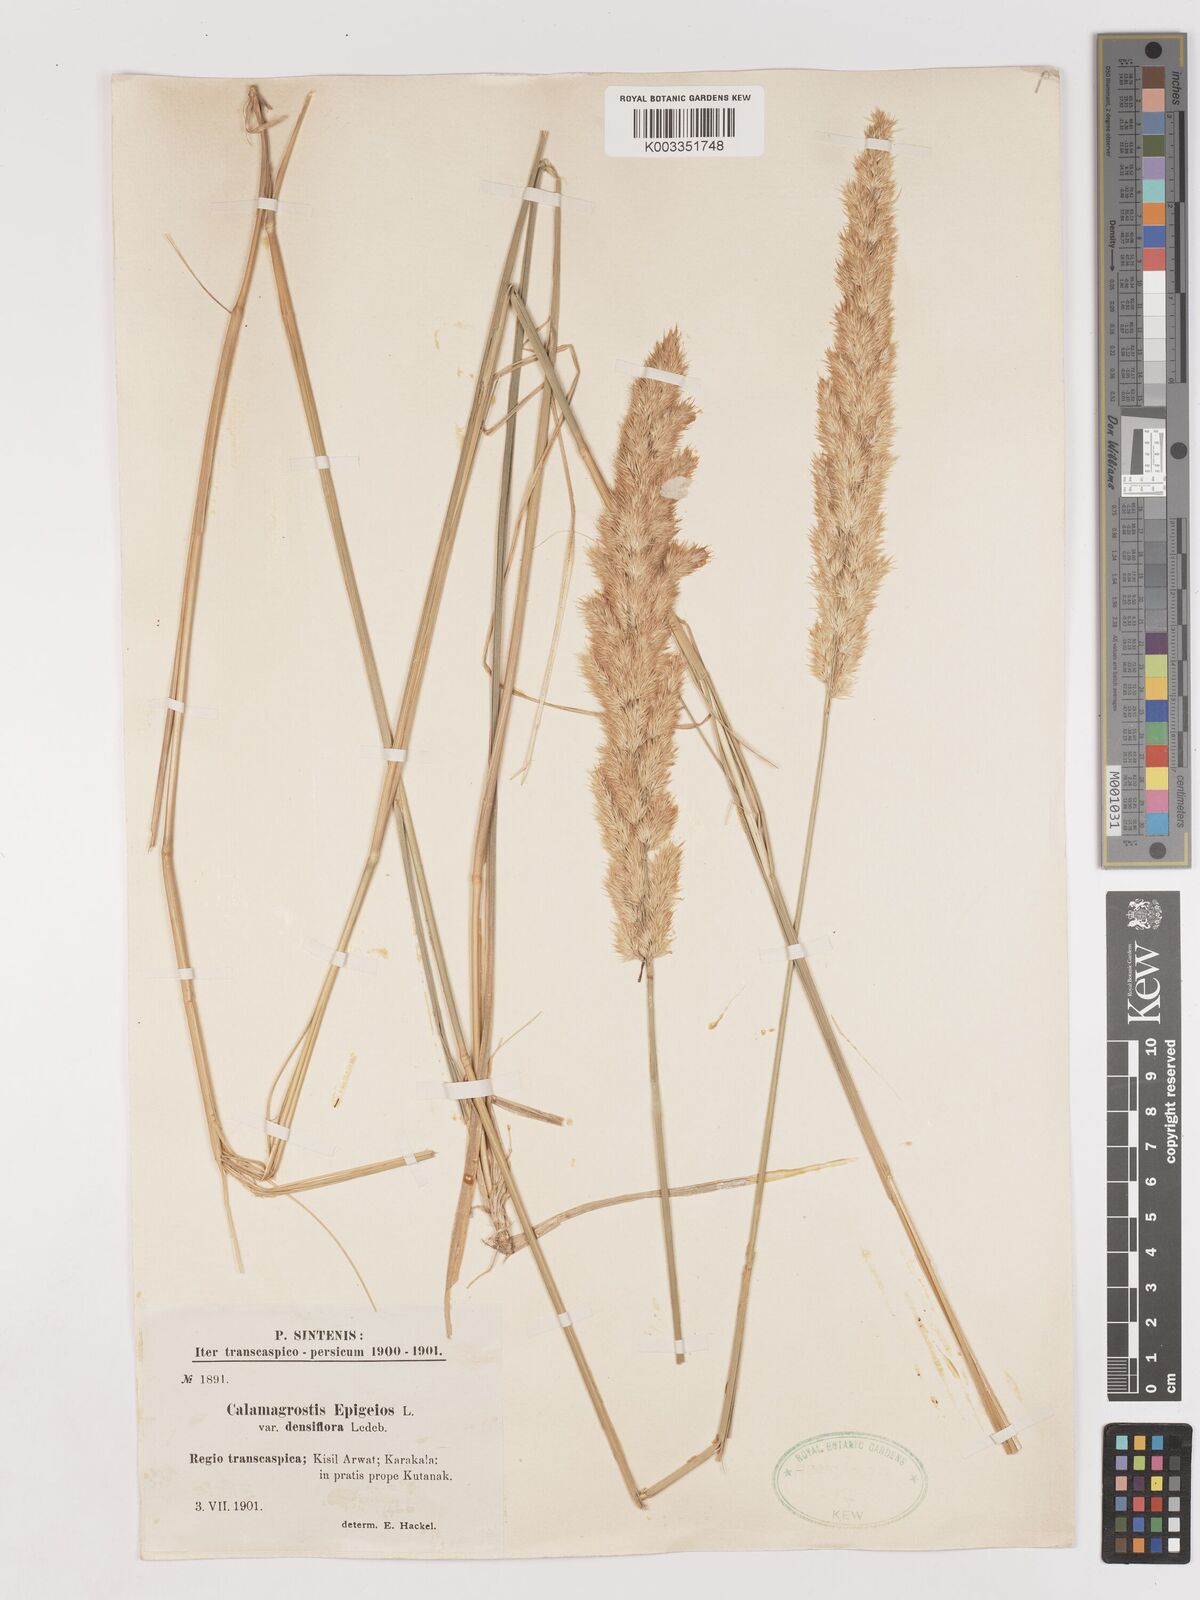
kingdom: Plantae
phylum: Tracheophyta
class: Liliopsida
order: Poales
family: Poaceae
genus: Calamagrostis
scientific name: Calamagrostis
